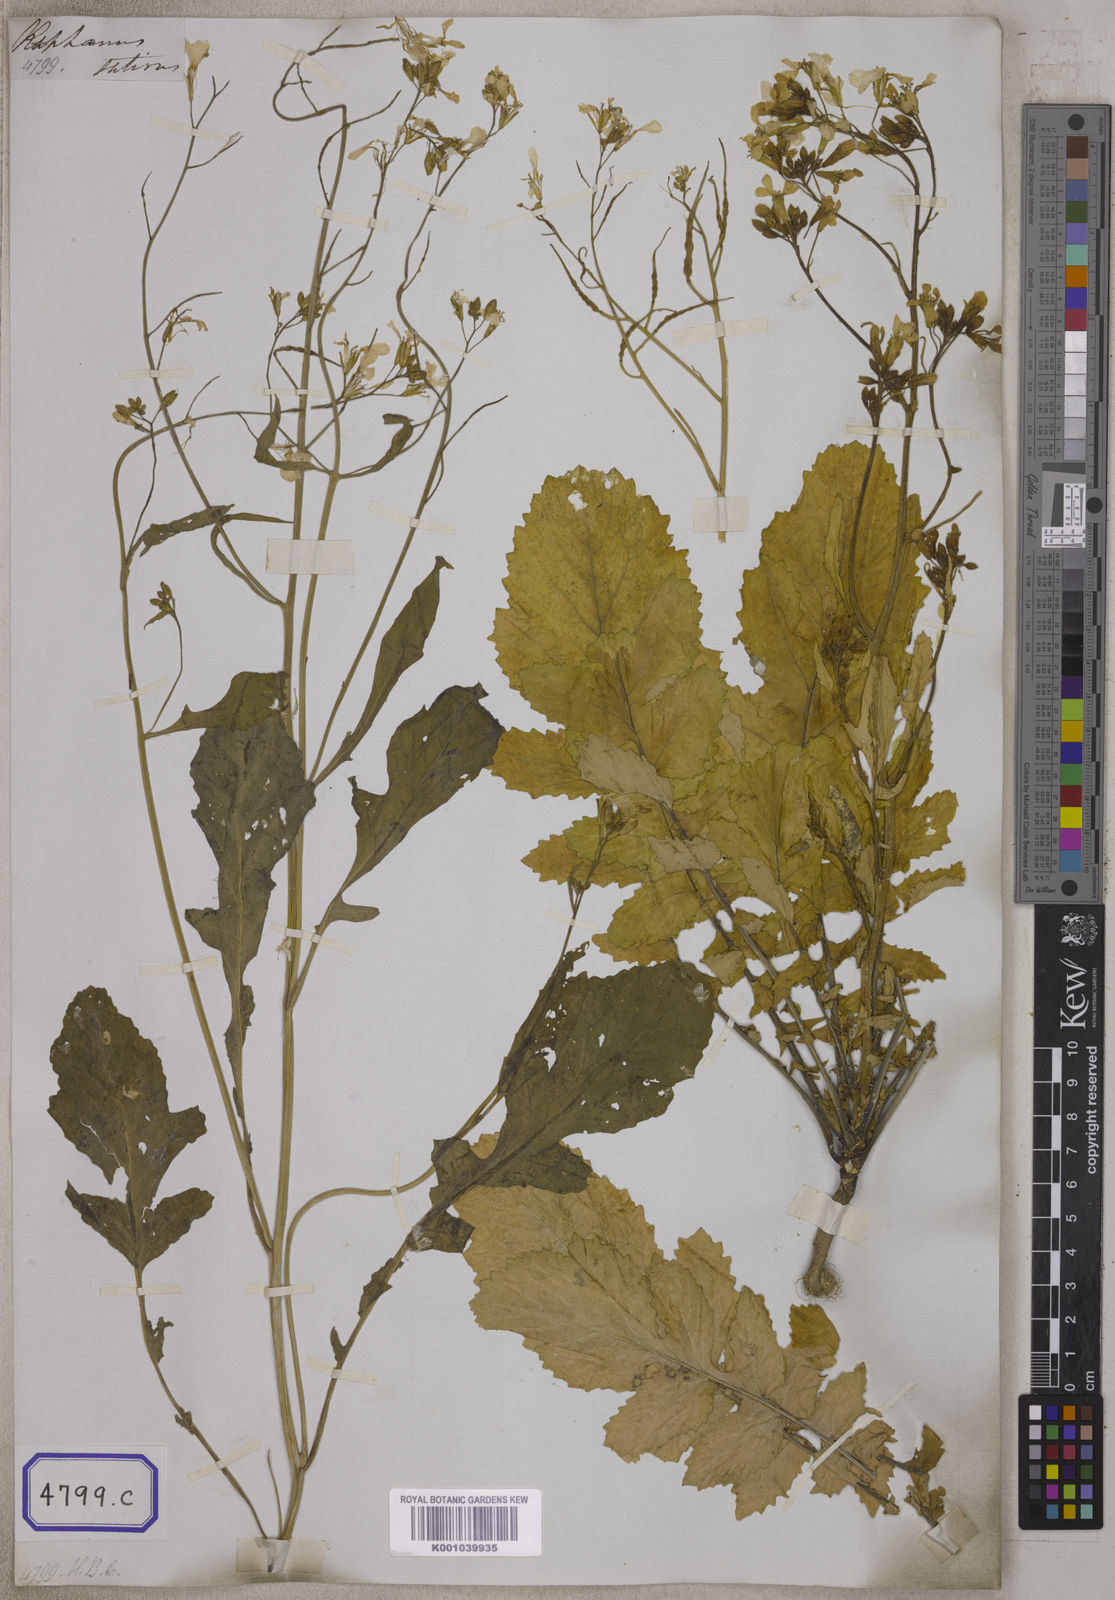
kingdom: Plantae
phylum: Tracheophyta
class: Magnoliopsida
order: Brassicales
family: Brassicaceae
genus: Raphanus
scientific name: Raphanus sativus
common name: Cultivated radish
